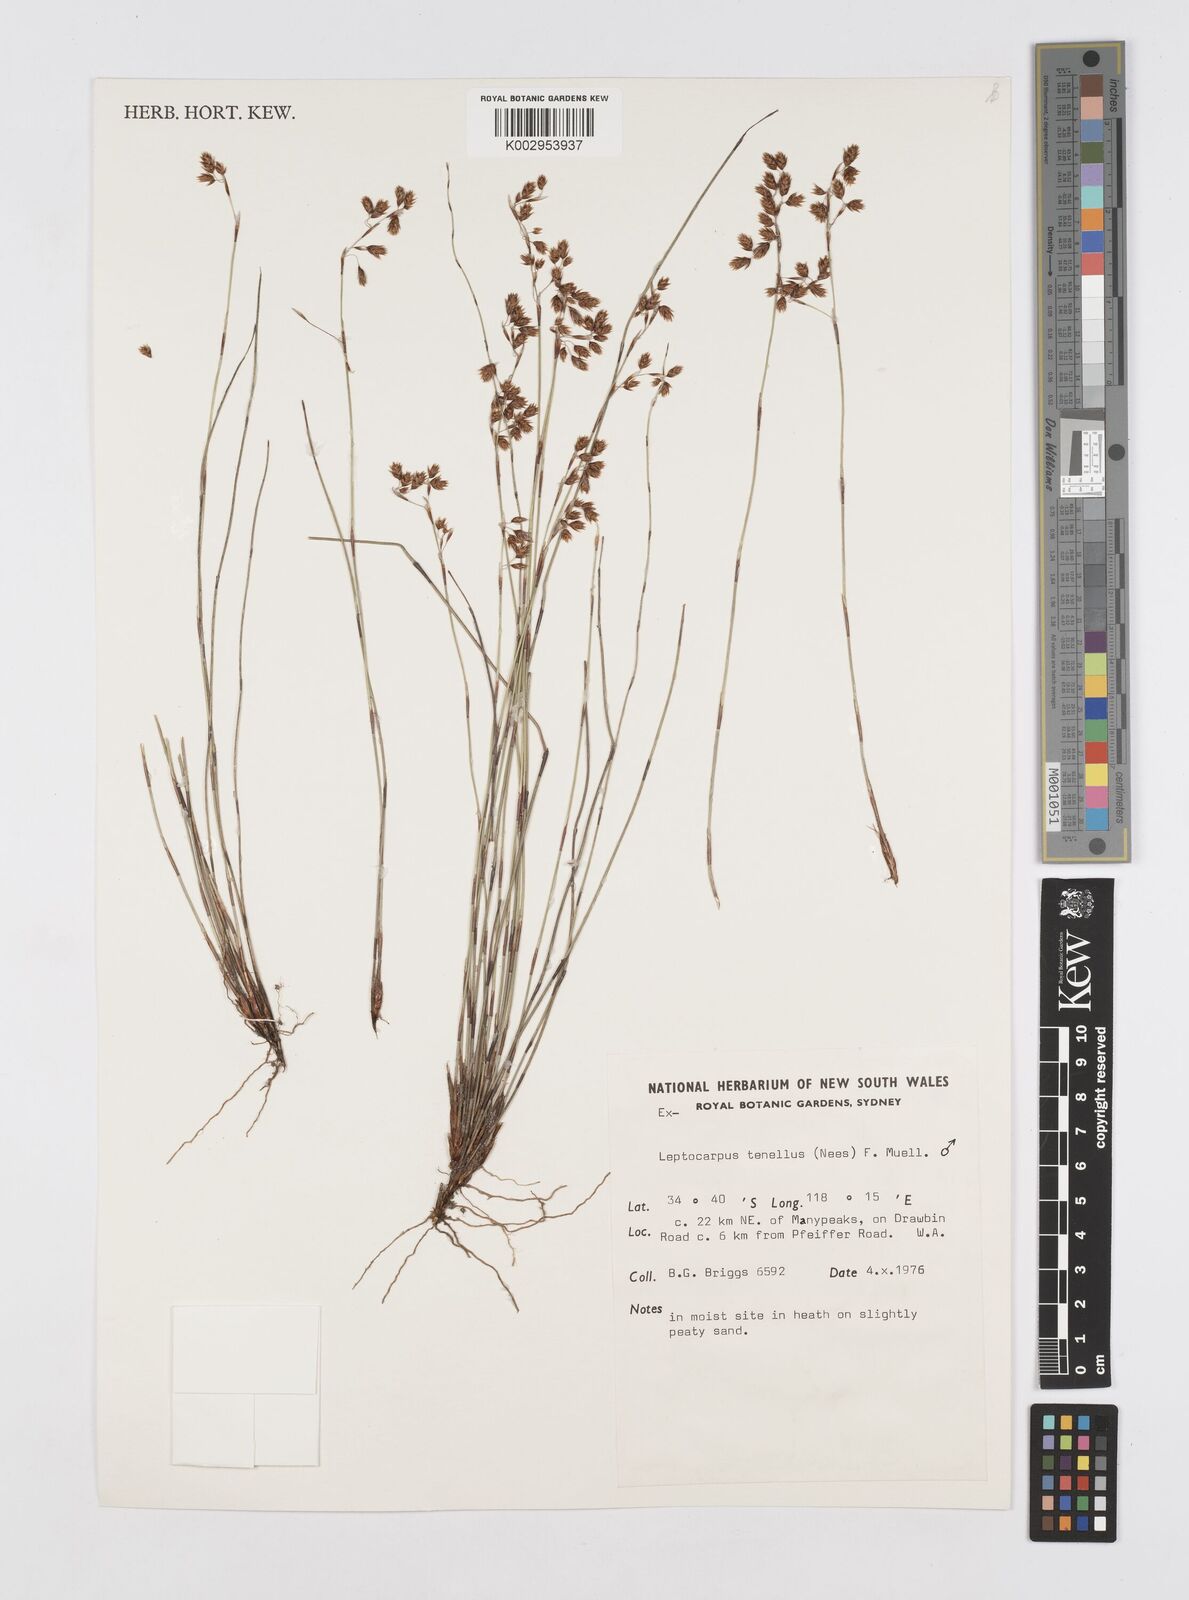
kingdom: Plantae
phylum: Tracheophyta
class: Liliopsida
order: Poales
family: Restionaceae
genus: Chaetanthus
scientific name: Chaetanthus tenellus
